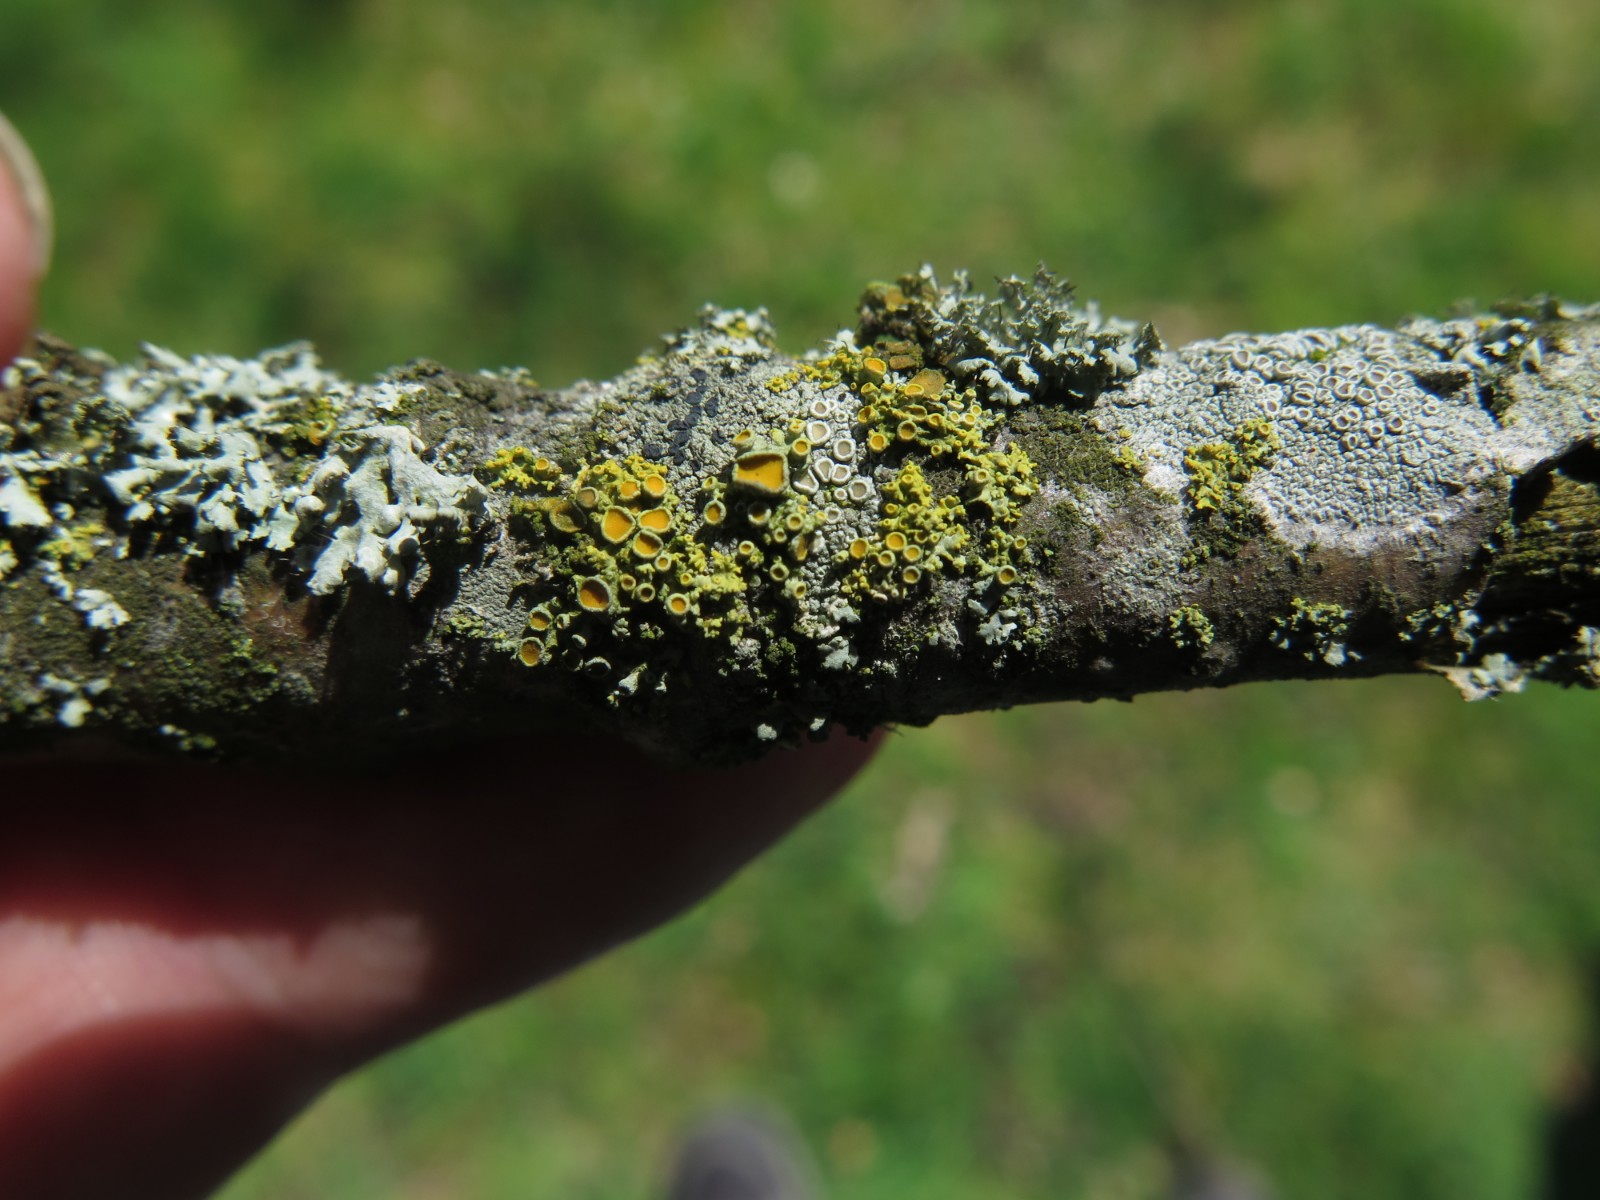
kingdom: Fungi
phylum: Ascomycota
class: Lecanoromycetes
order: Teloschistales
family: Teloschistaceae
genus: Polycauliona
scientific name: Polycauliona polycarpa
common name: mangefrugtet orangelav
